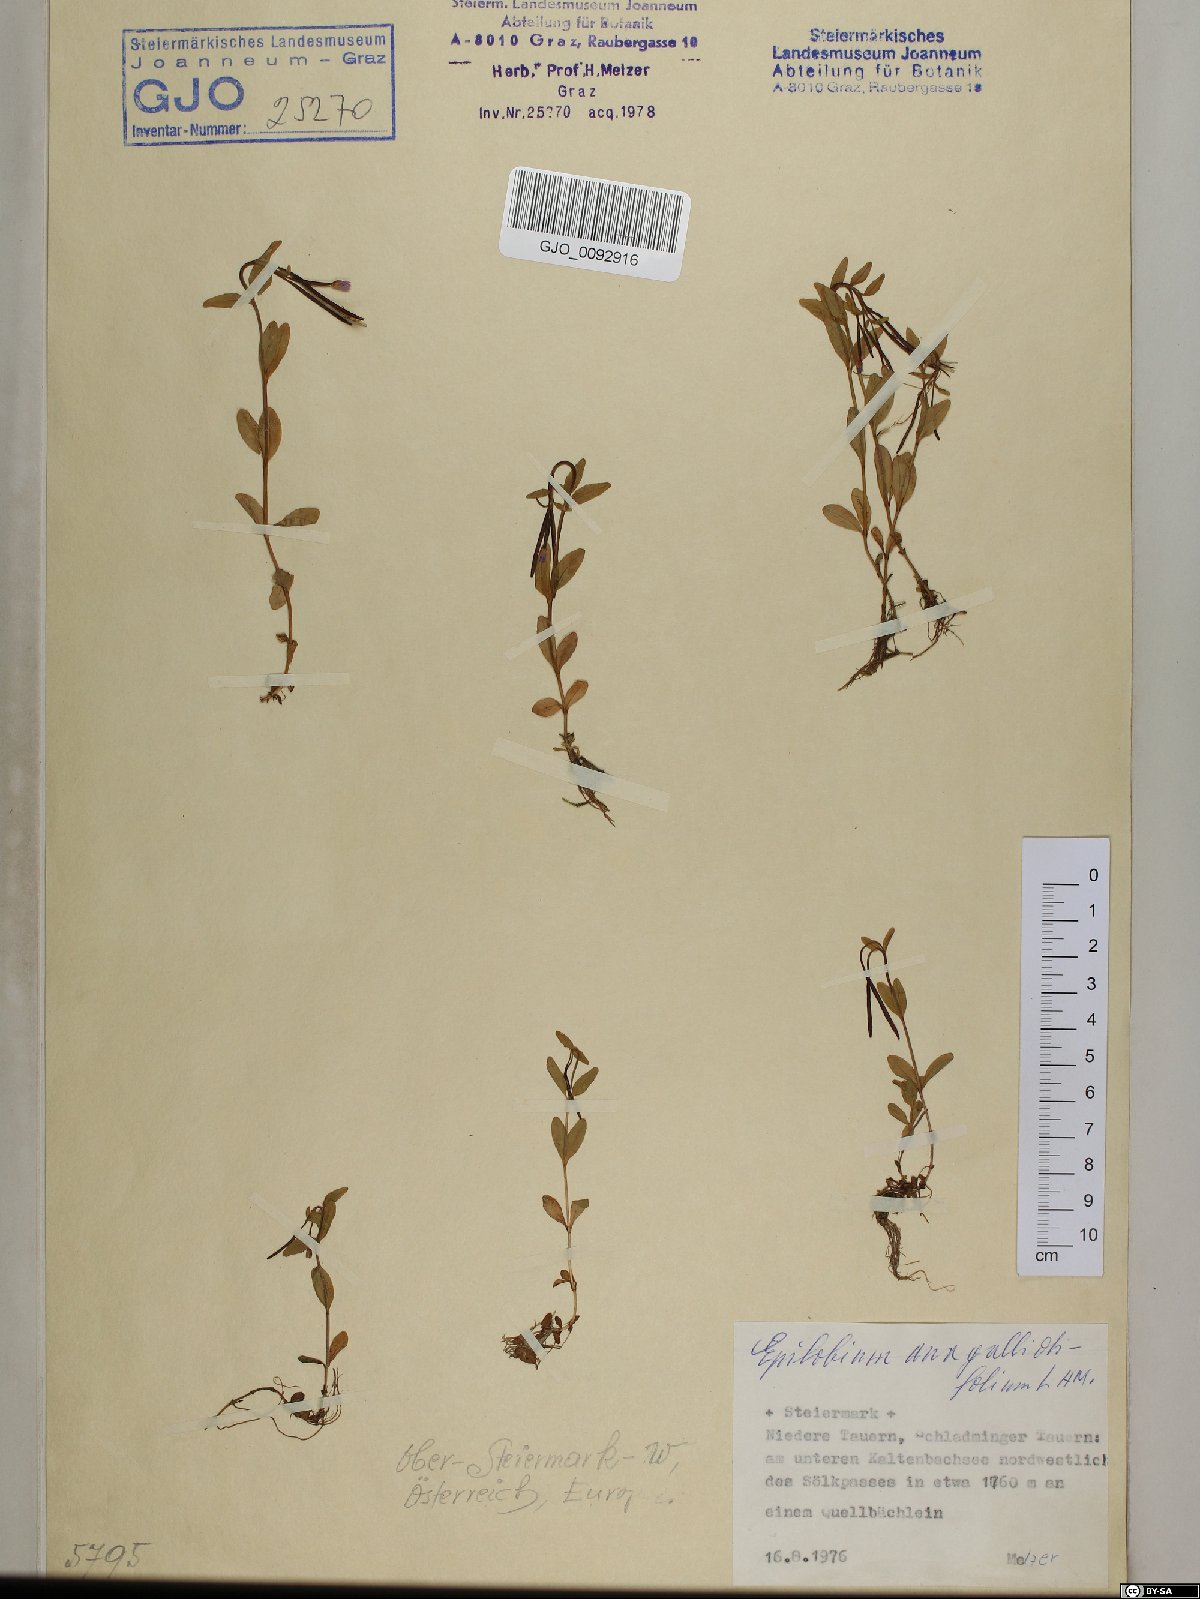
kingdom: Plantae
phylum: Tracheophyta
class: Magnoliopsida
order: Myrtales
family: Onagraceae
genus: Epilobium
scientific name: Epilobium anagallidifolium
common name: Alpine willowherb
